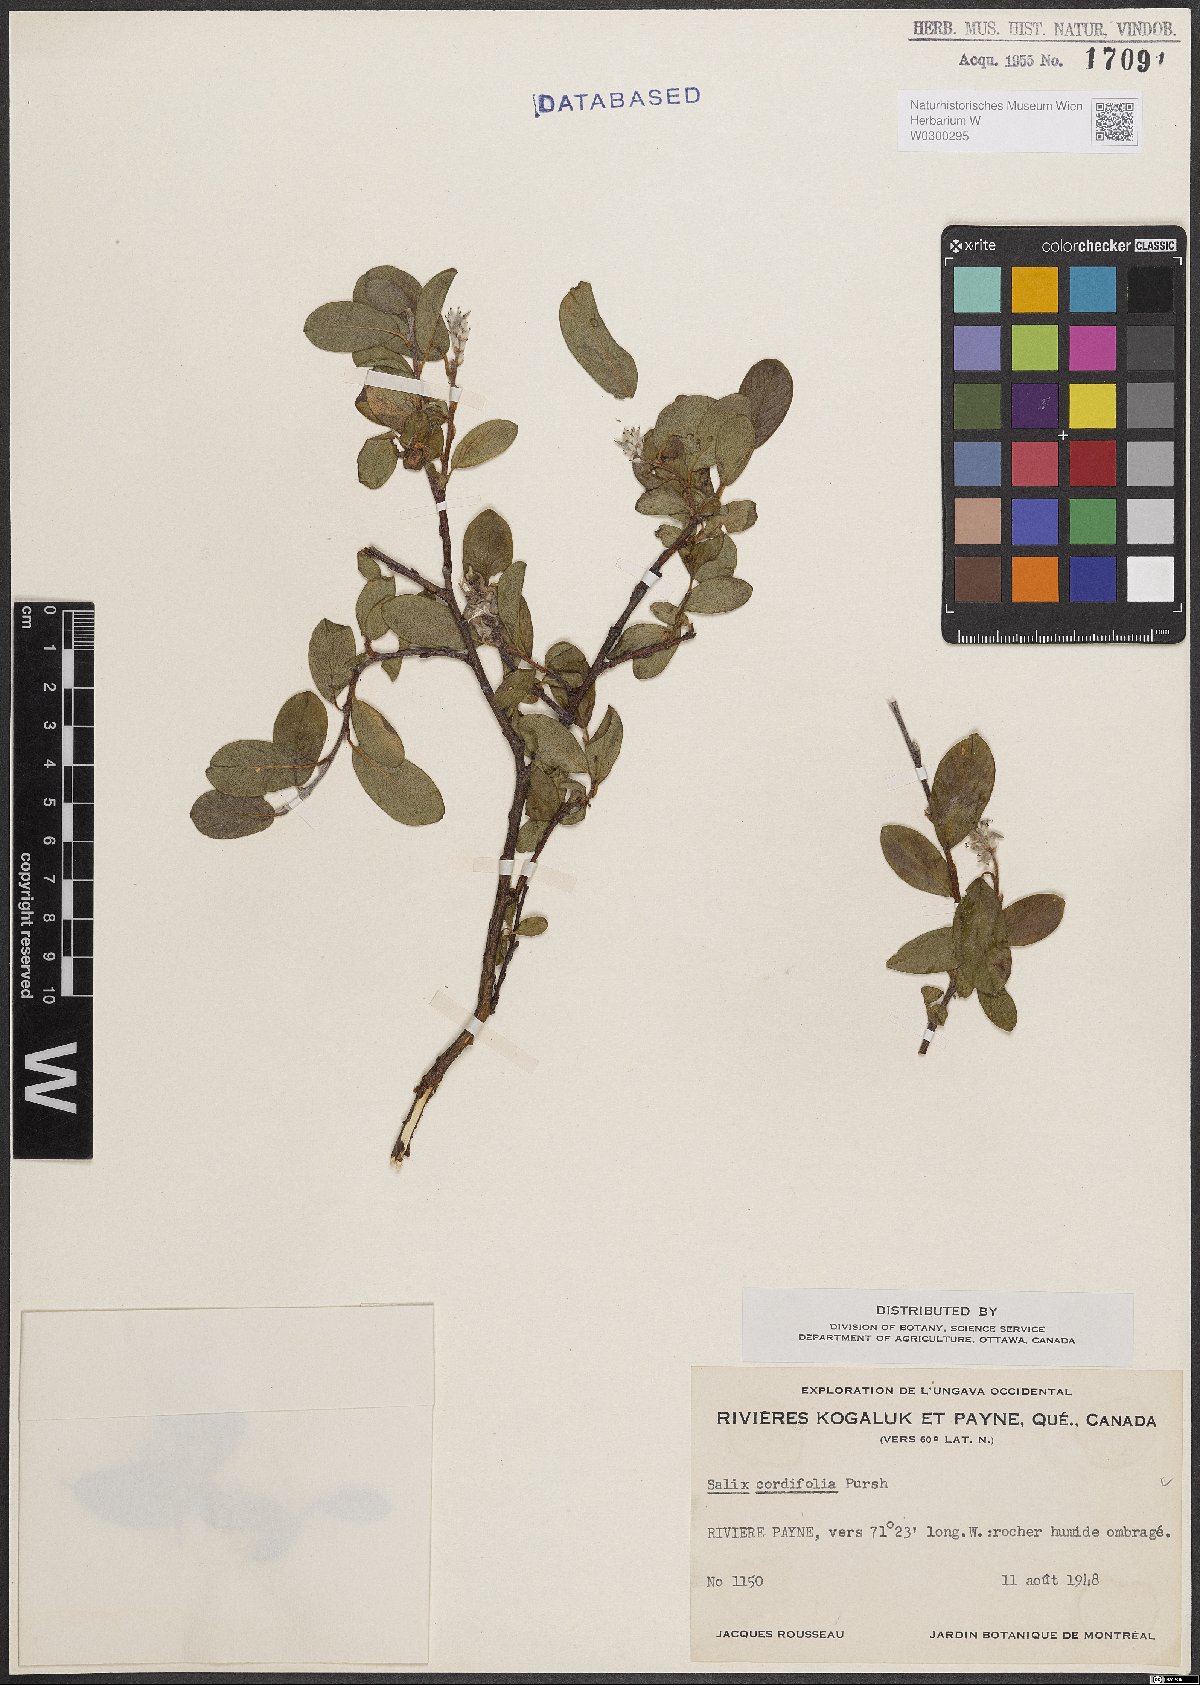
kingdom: Plantae
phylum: Tracheophyta
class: Magnoliopsida
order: Malpighiales
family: Salicaceae
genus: Salix
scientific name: Salix
